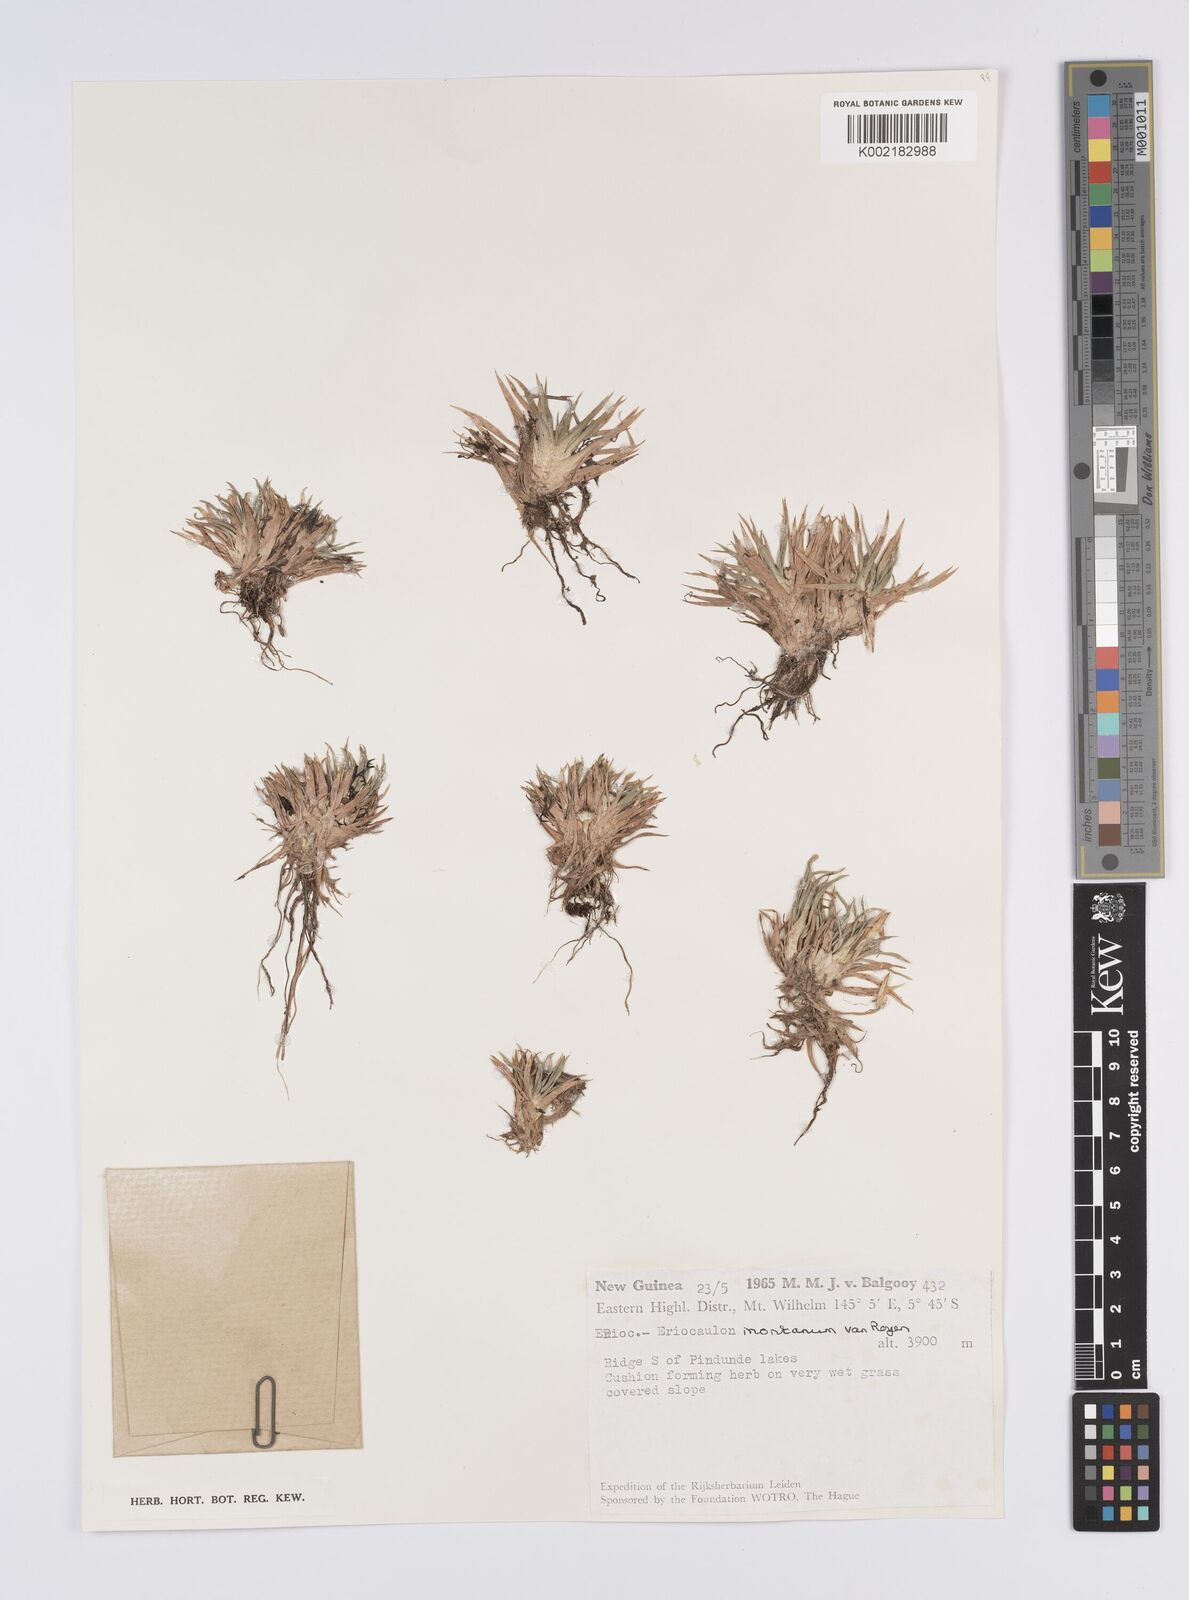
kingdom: Plantae
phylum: Tracheophyta
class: Liliopsida
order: Poales
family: Eriocaulaceae
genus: Eriocaulon
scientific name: Eriocaulon montanum
